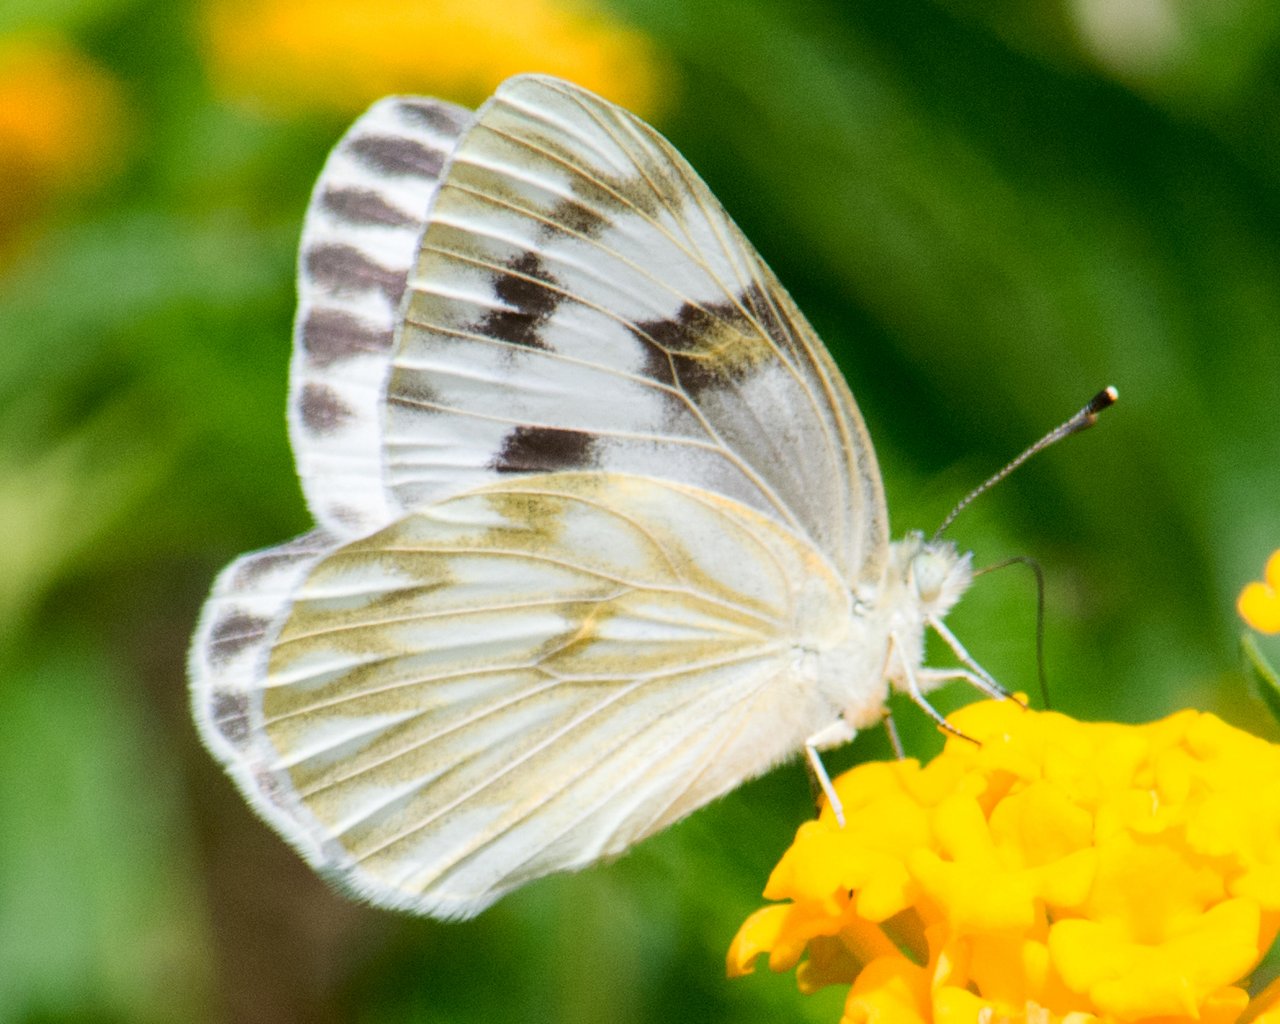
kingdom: Animalia
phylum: Arthropoda
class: Insecta
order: Lepidoptera
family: Pieridae
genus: Pontia
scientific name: Pontia protodice
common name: Checkered White
